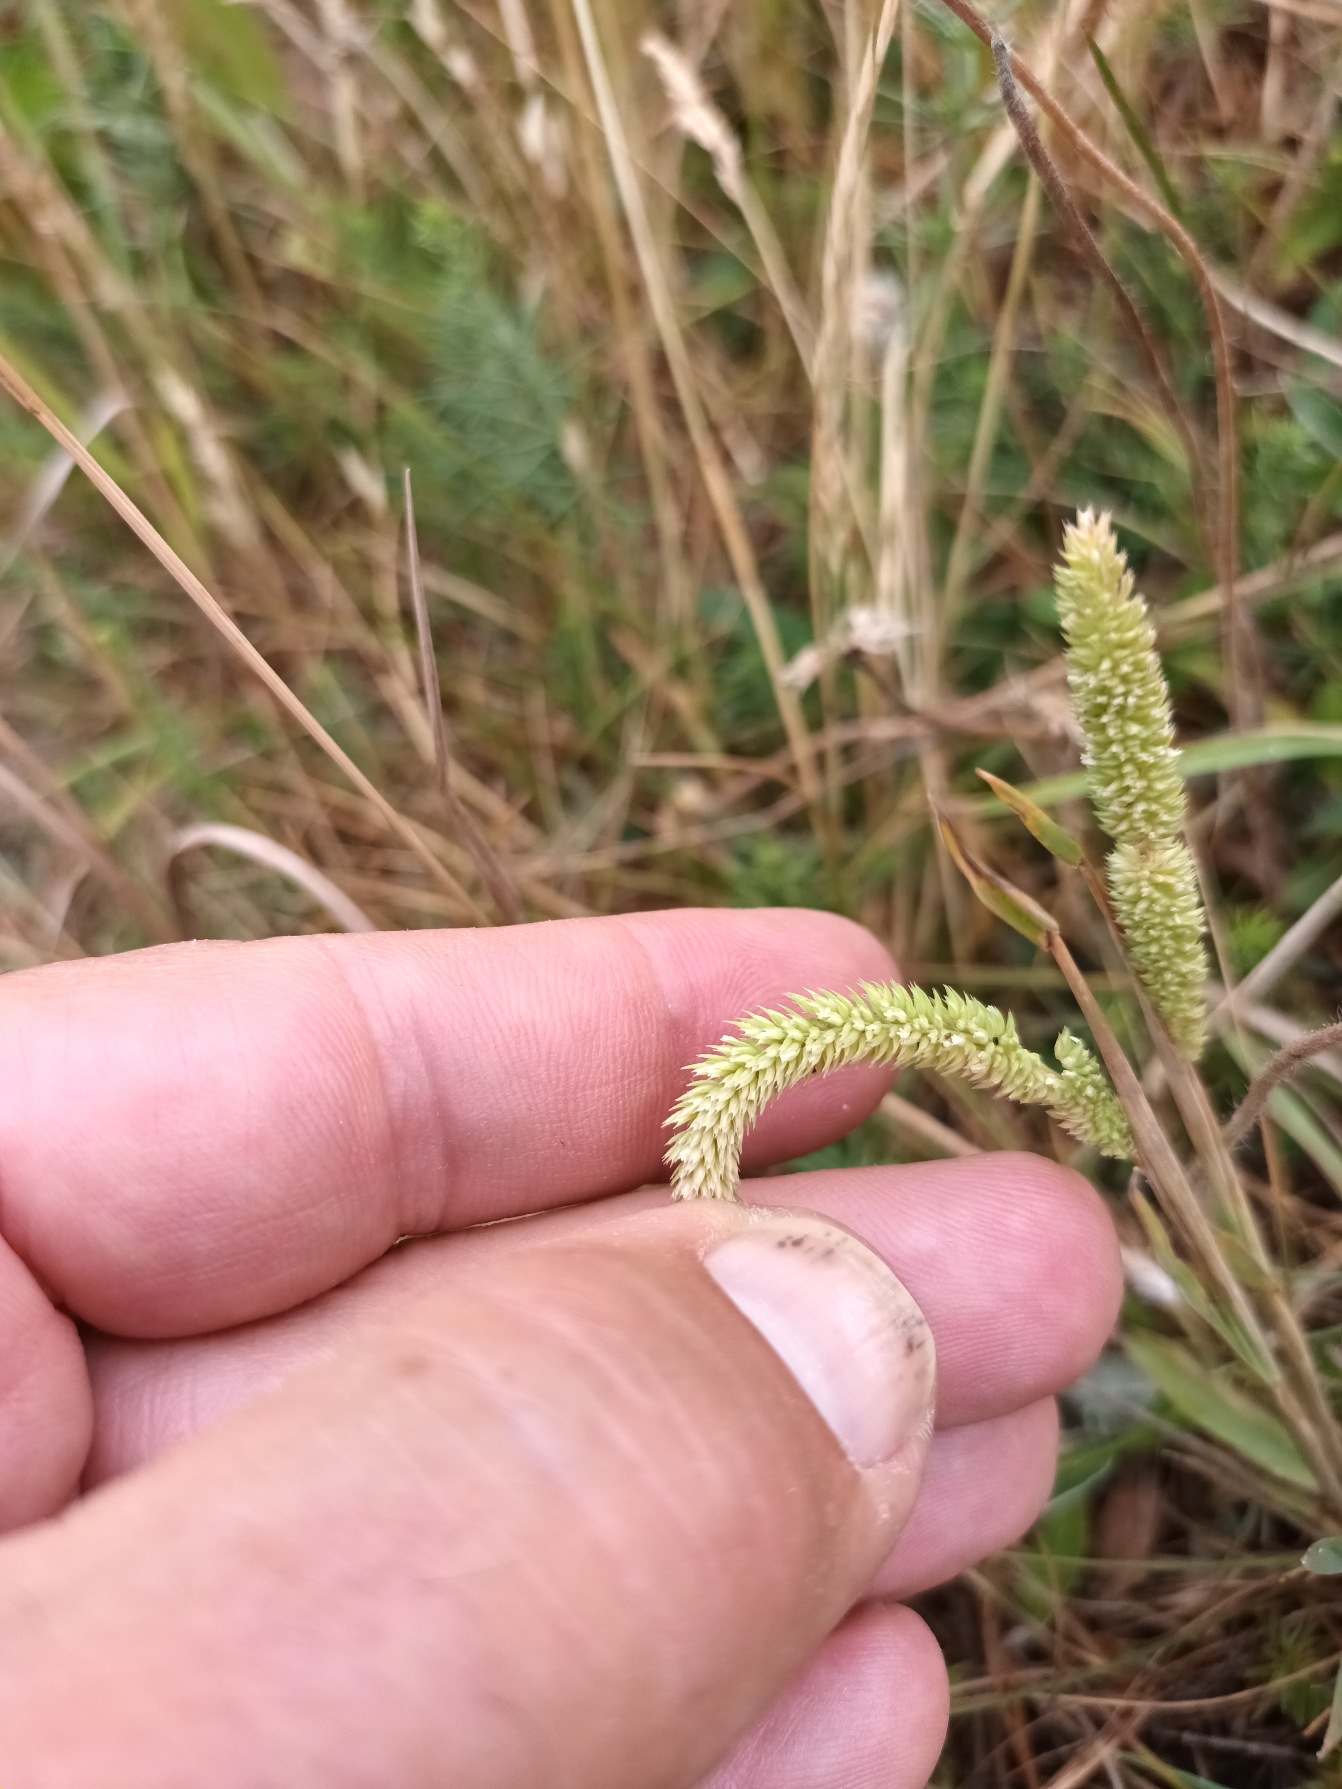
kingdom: Plantae
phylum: Tracheophyta
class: Liliopsida
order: Poales
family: Poaceae
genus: Phleum
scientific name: Phleum phleoides
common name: Glat rottehale
